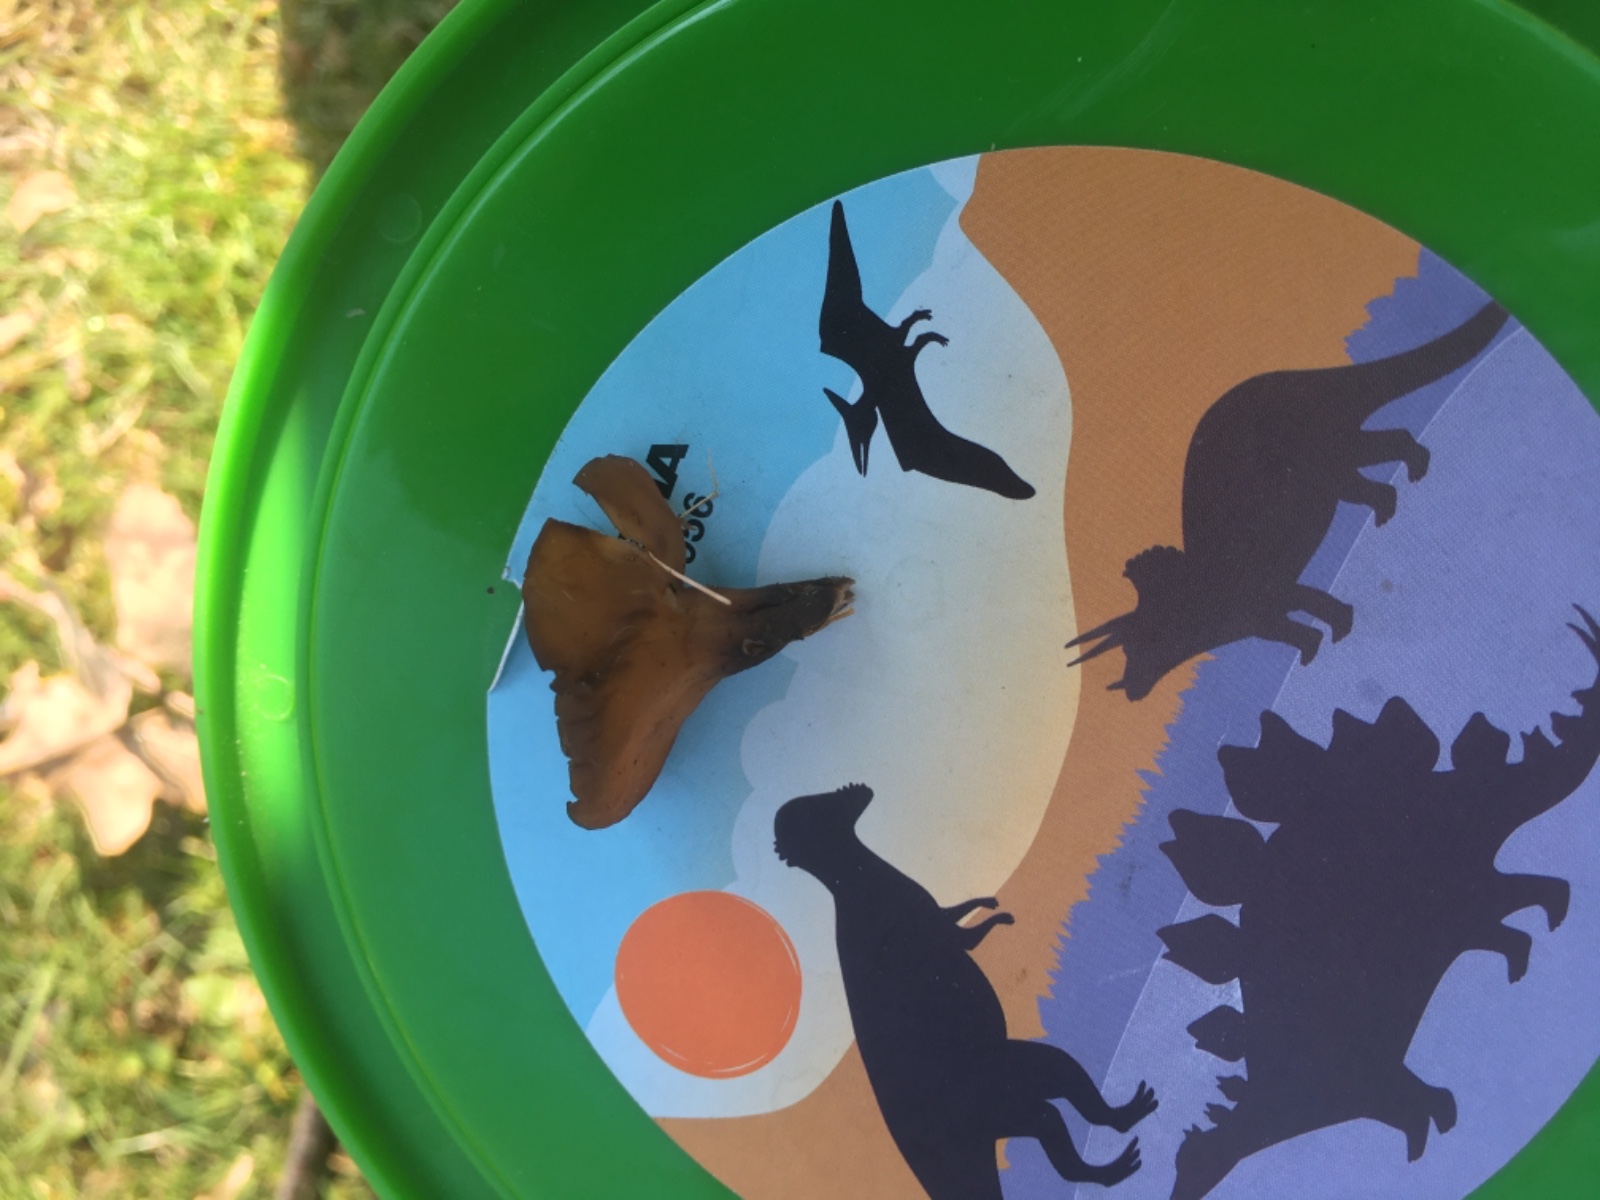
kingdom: Fungi
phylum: Ascomycota
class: Leotiomycetes
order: Helotiales
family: Sclerotiniaceae
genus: Dumontinia
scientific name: Dumontinia tuberosa
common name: anemone-knoldskive
